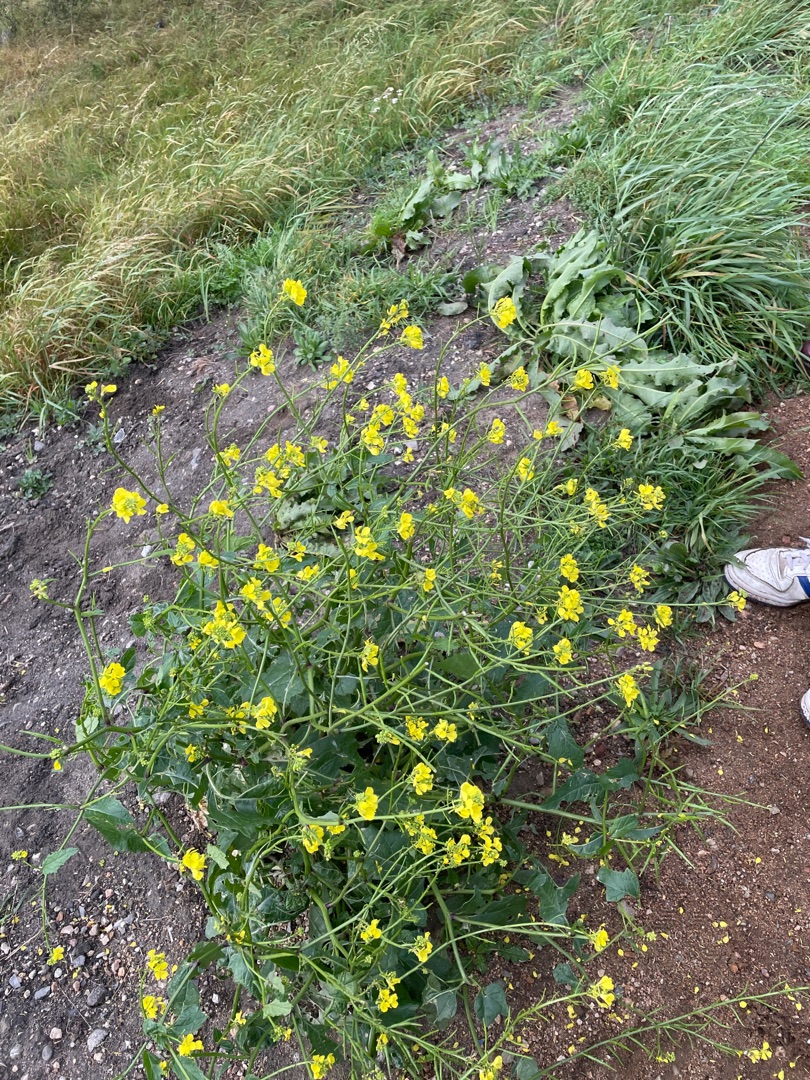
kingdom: Plantae
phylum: Tracheophyta
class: Magnoliopsida
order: Brassicales
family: Brassicaceae
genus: Sinapis
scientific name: Sinapis arvensis
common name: Ager-sennep
